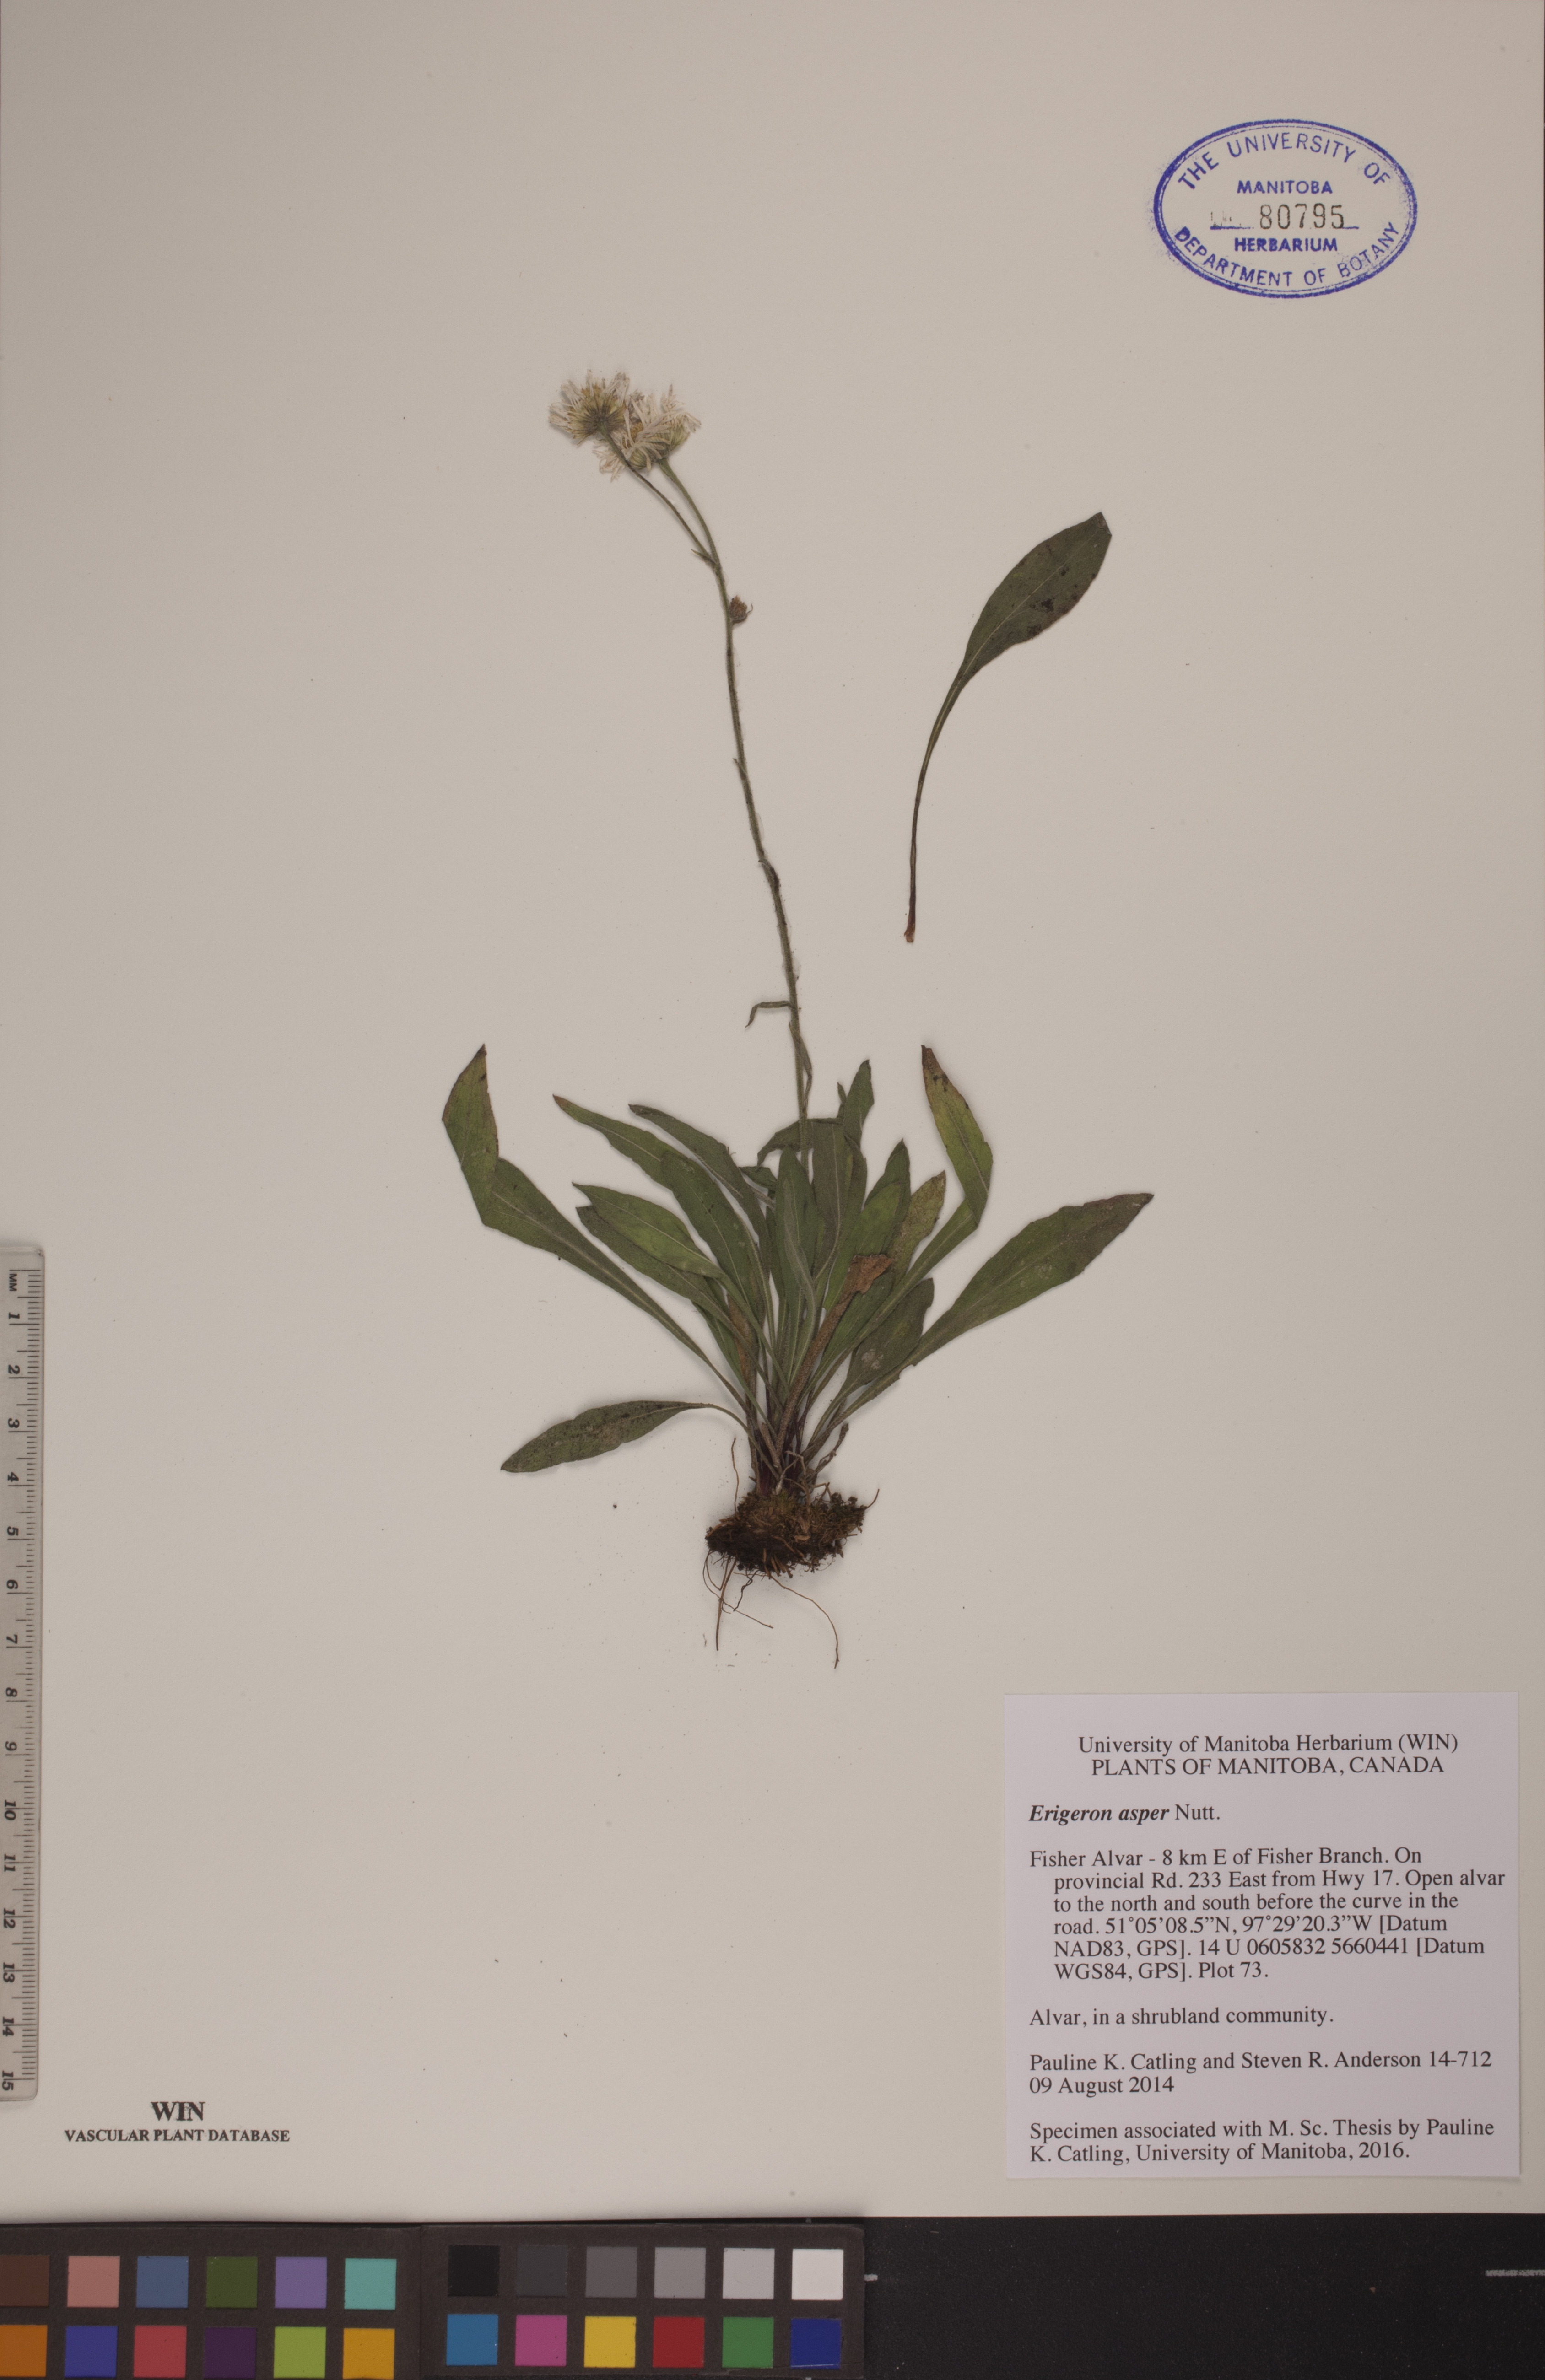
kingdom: Plantae
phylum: Tracheophyta
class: Magnoliopsida
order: Asterales
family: Asteraceae
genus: Erigeron
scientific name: Erigeron glabellus
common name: Smooth fleabane
